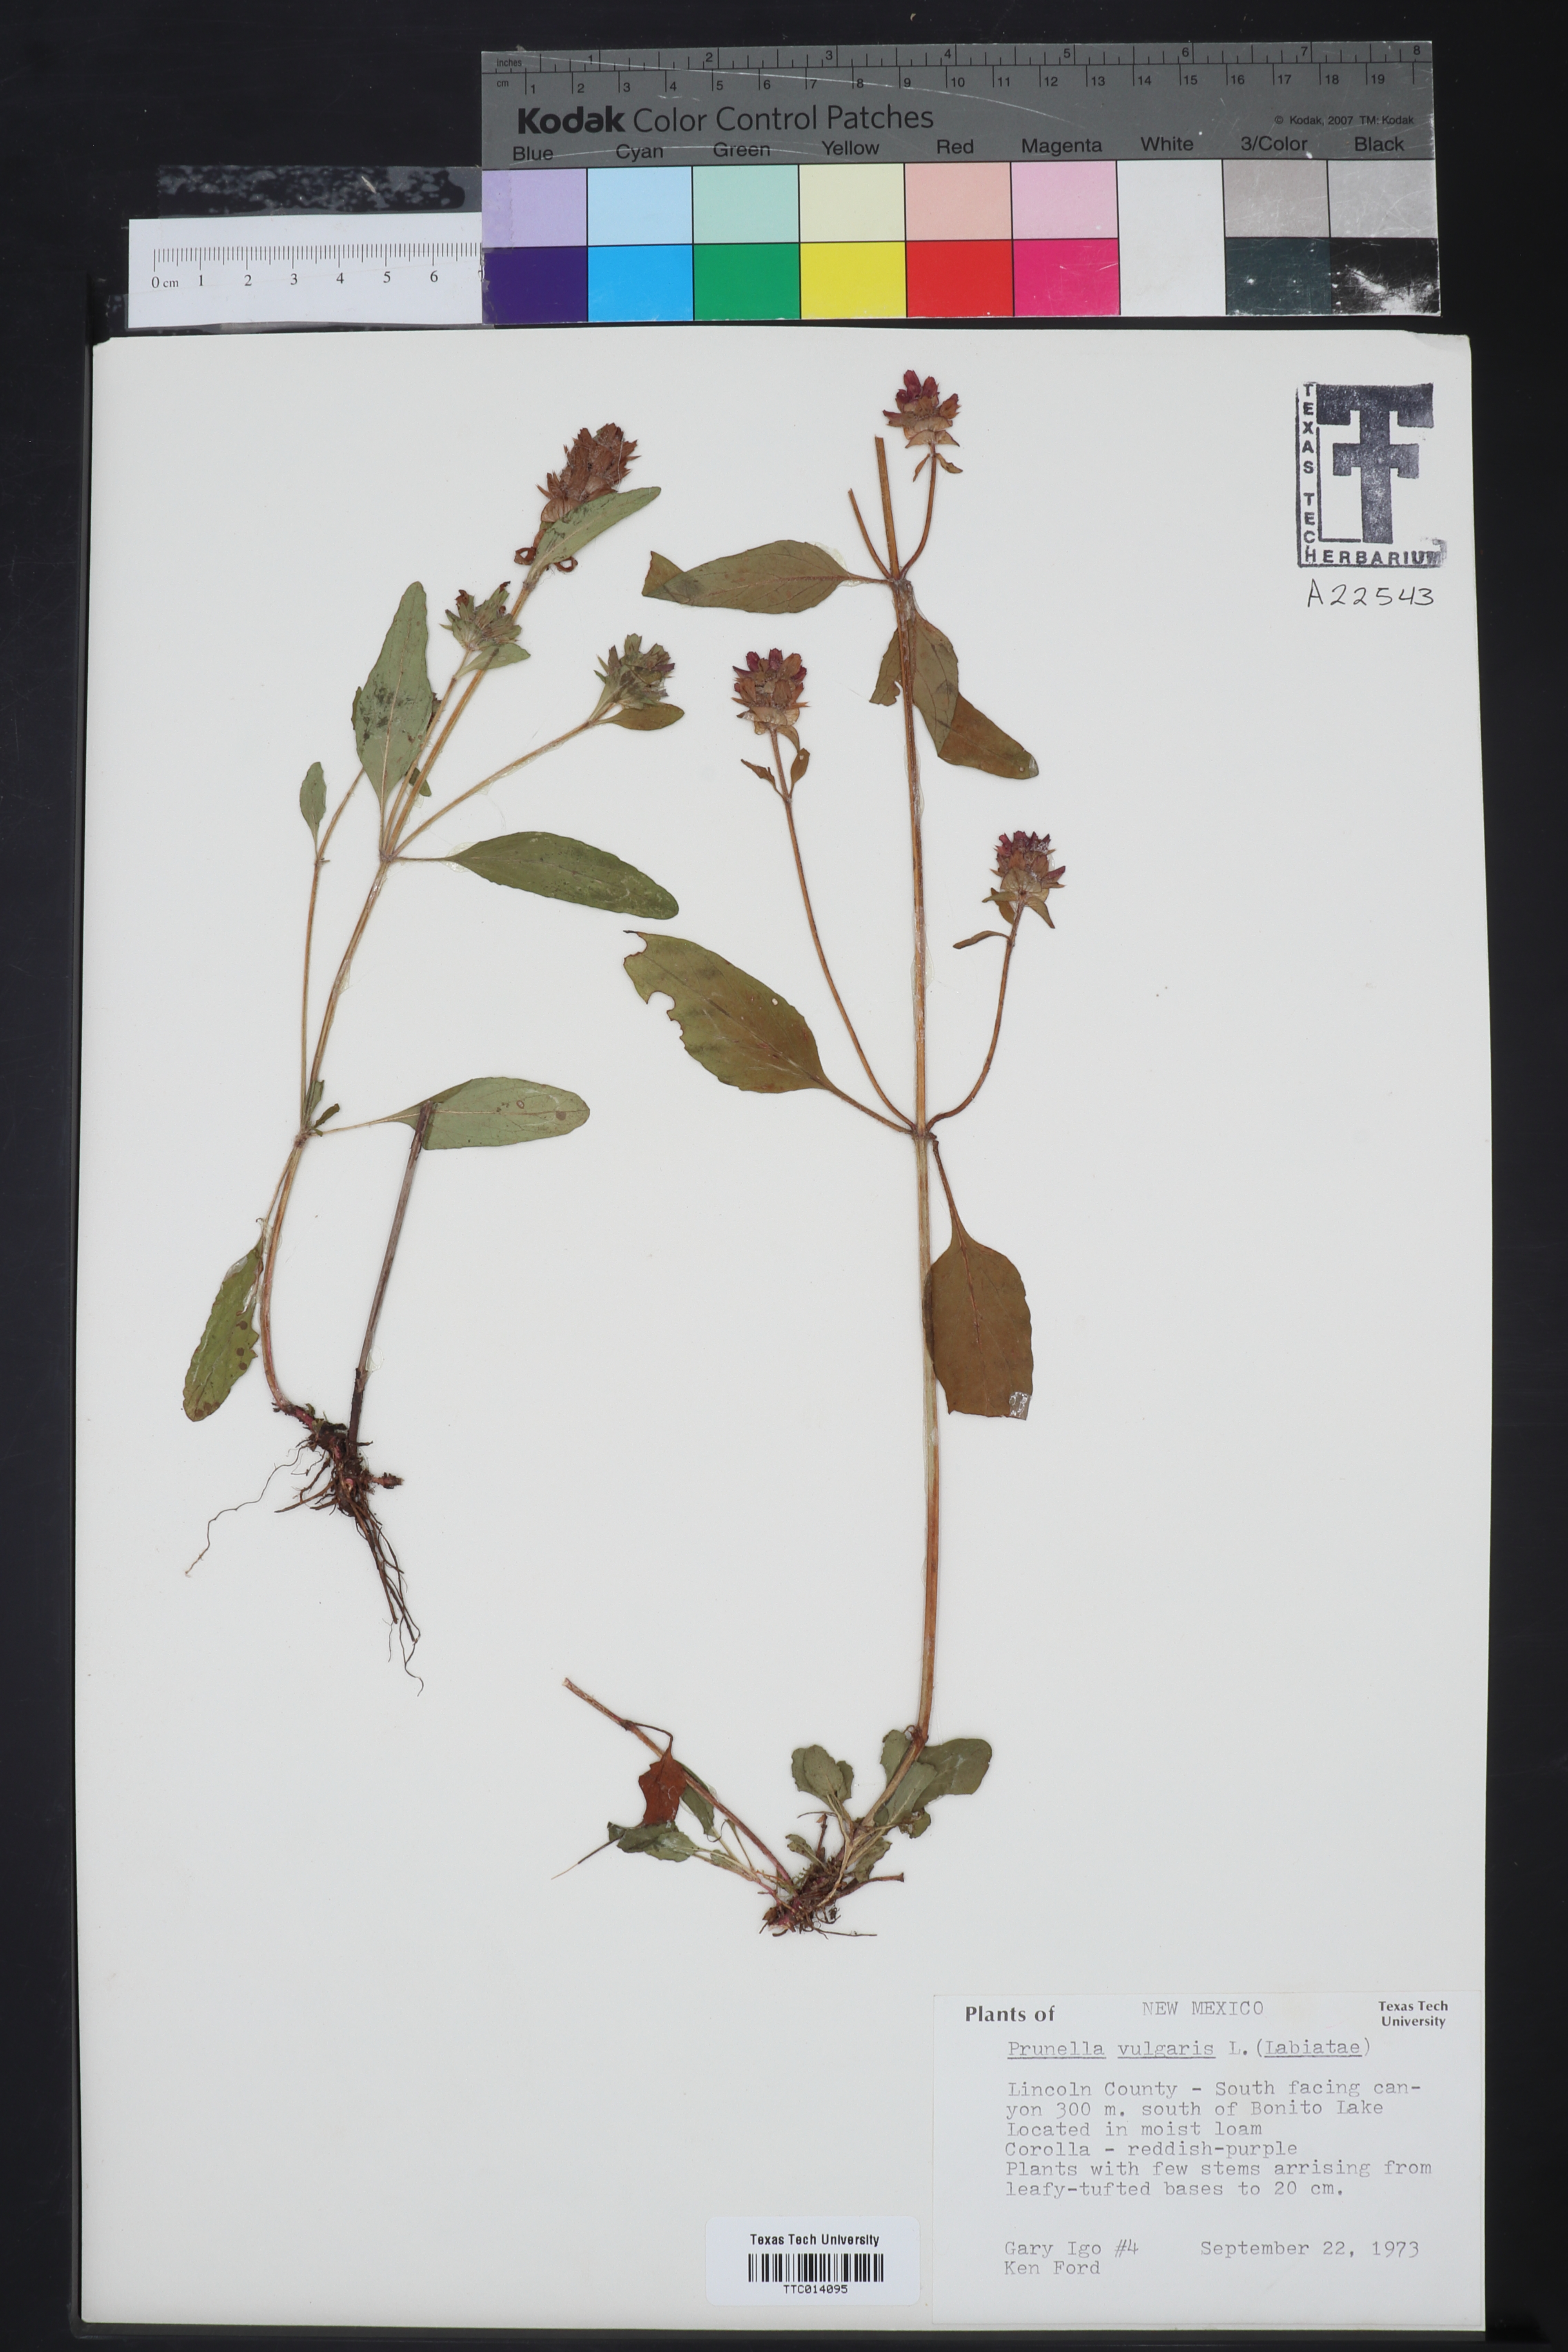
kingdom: Plantae
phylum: Tracheophyta
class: Magnoliopsida
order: Lamiales
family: Lamiaceae
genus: Prunella
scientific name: Prunella vulgaris
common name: Heal-all
